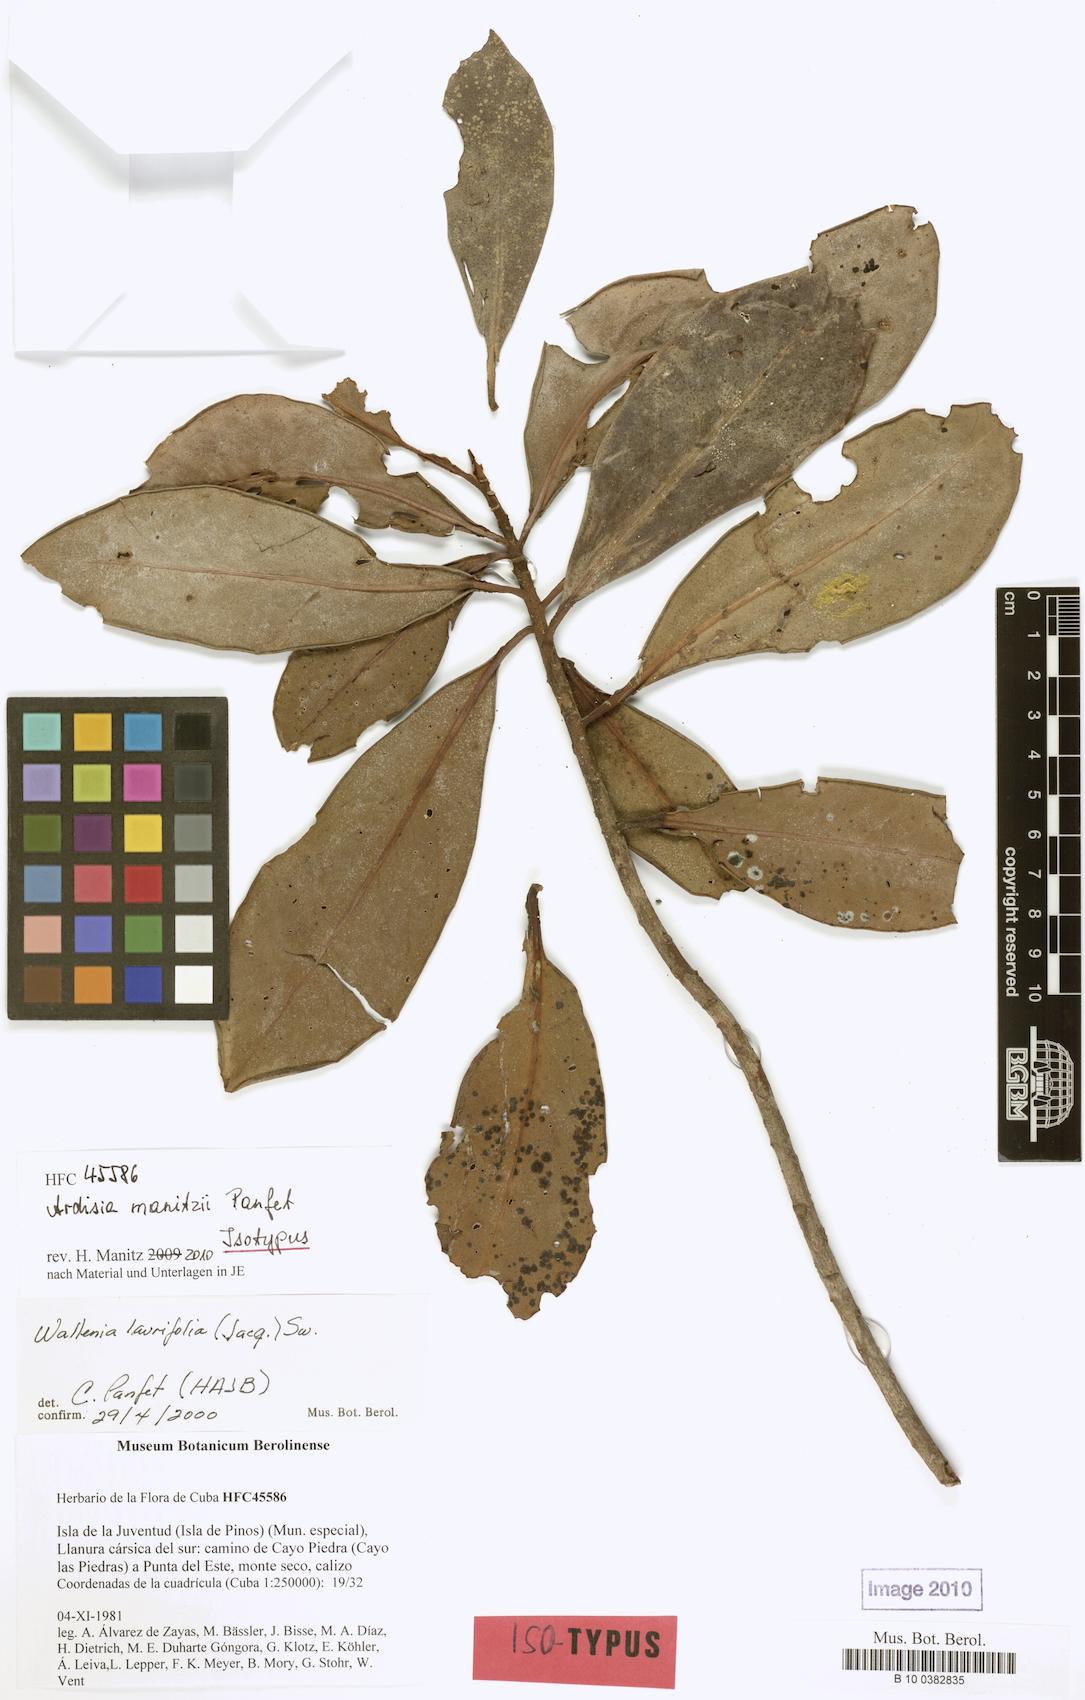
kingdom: Plantae
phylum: Tracheophyta
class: Magnoliopsida
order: Ericales
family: Primulaceae
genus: Ardisia
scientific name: Ardisia manitzii
